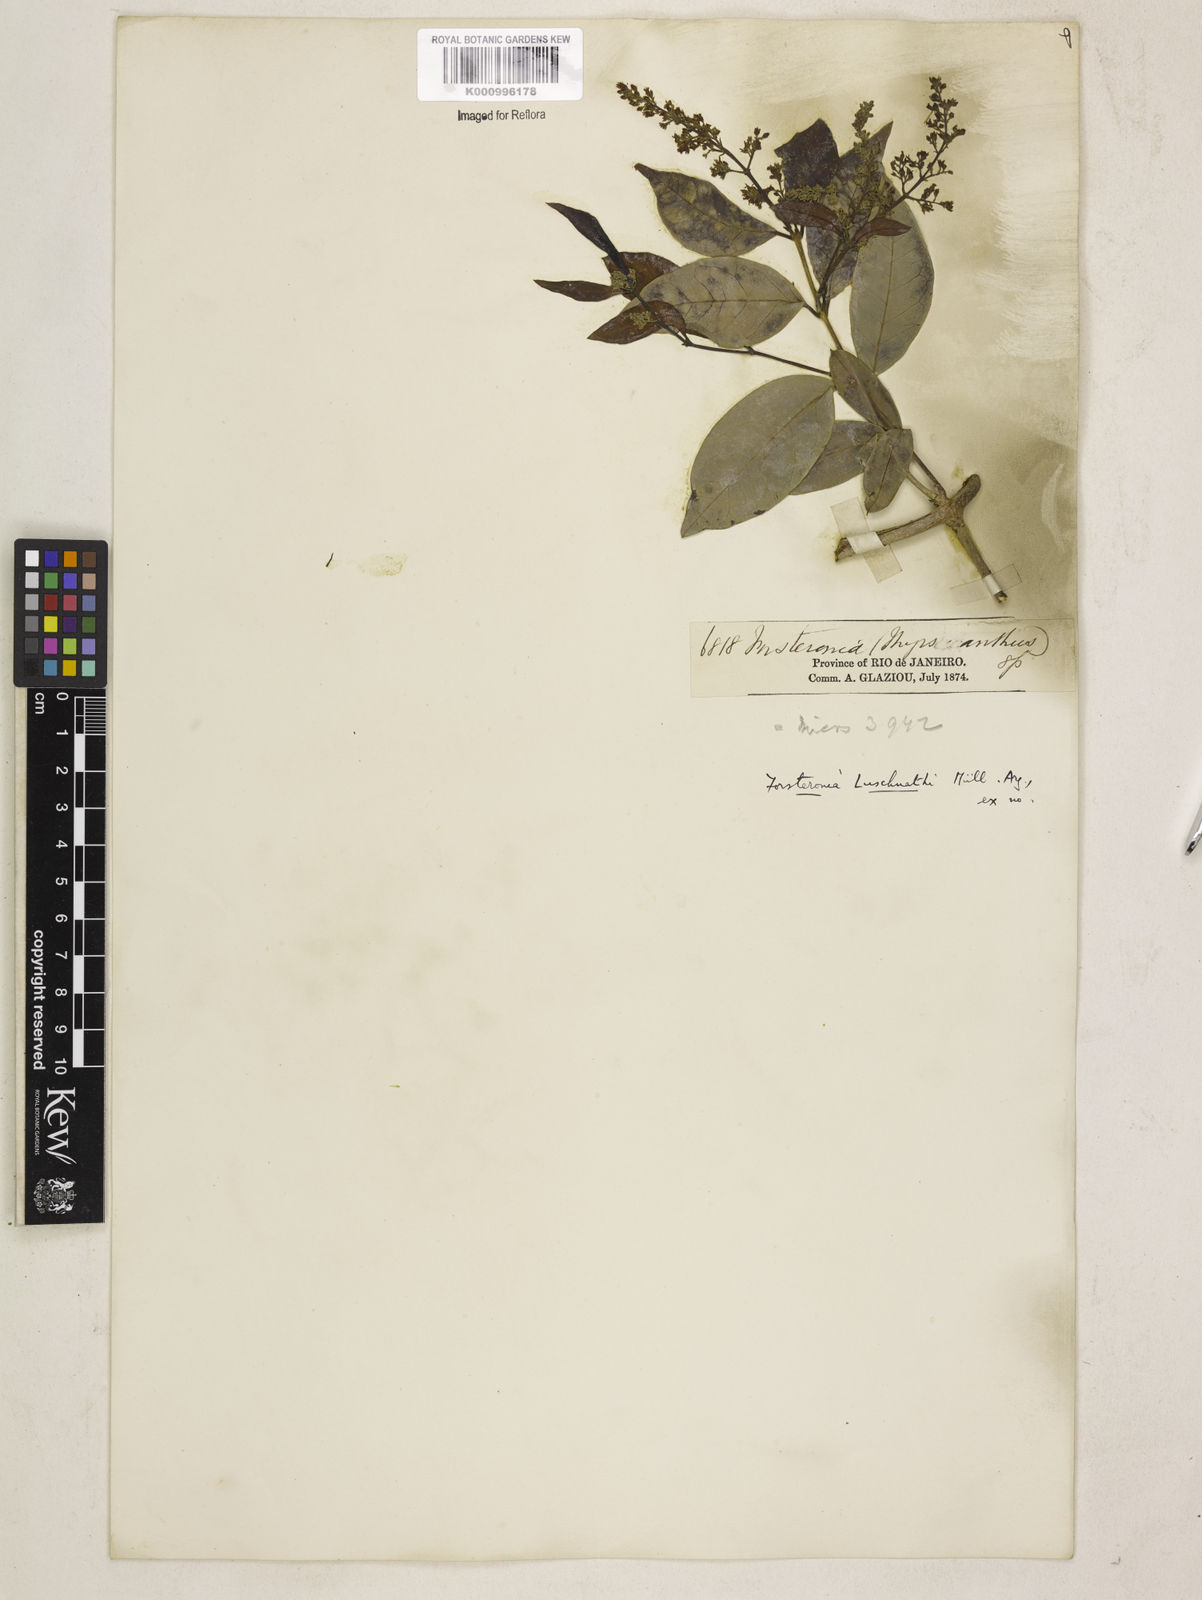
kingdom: Plantae
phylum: Tracheophyta
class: Magnoliopsida
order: Gentianales
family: Apocynaceae
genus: Forsteronia
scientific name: Forsteronia
